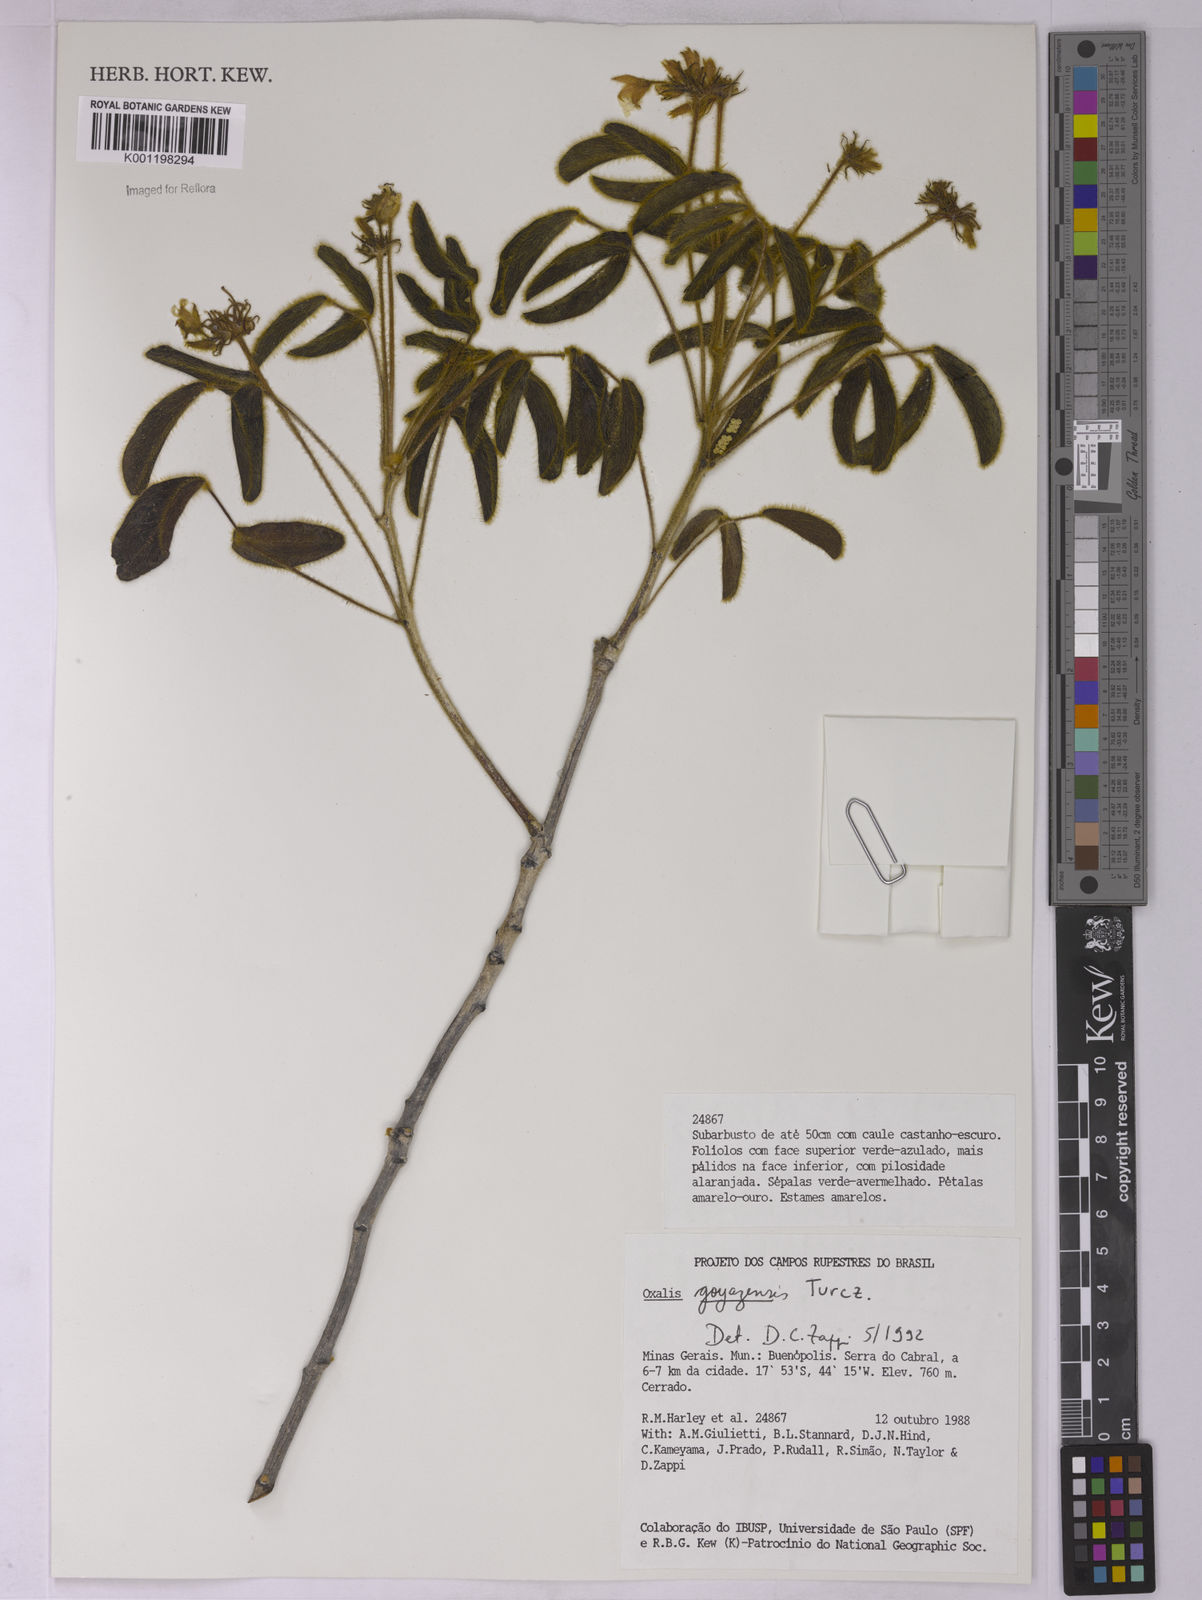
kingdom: Plantae
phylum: Tracheophyta
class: Magnoliopsida
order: Oxalidales
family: Oxalidaceae
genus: Oxalis
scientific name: Oxalis goyazensis
